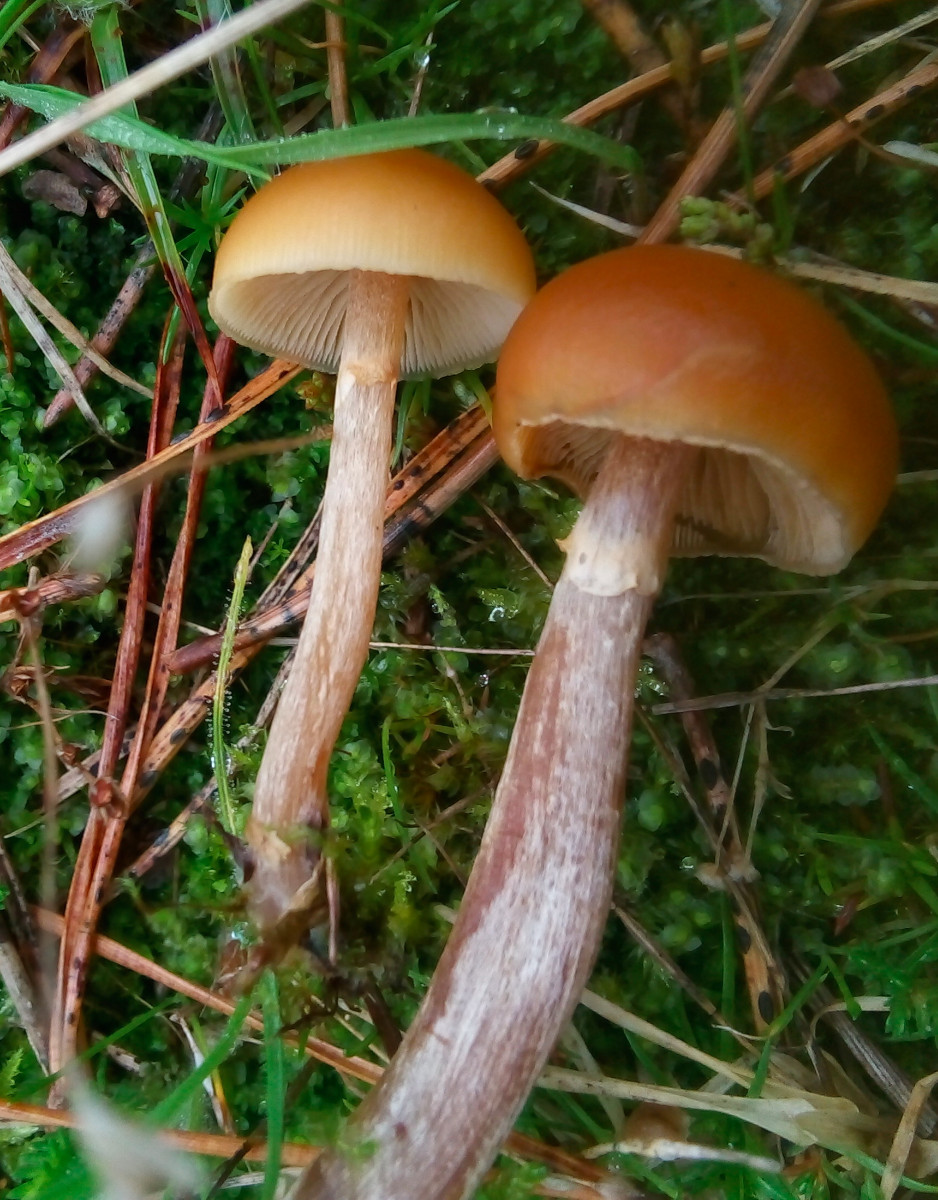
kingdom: Fungi
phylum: Basidiomycota
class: Agaricomycetes
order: Agaricales
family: Hymenogastraceae
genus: Galerina
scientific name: Galerina marginata
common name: randbæltet hjelmhat
